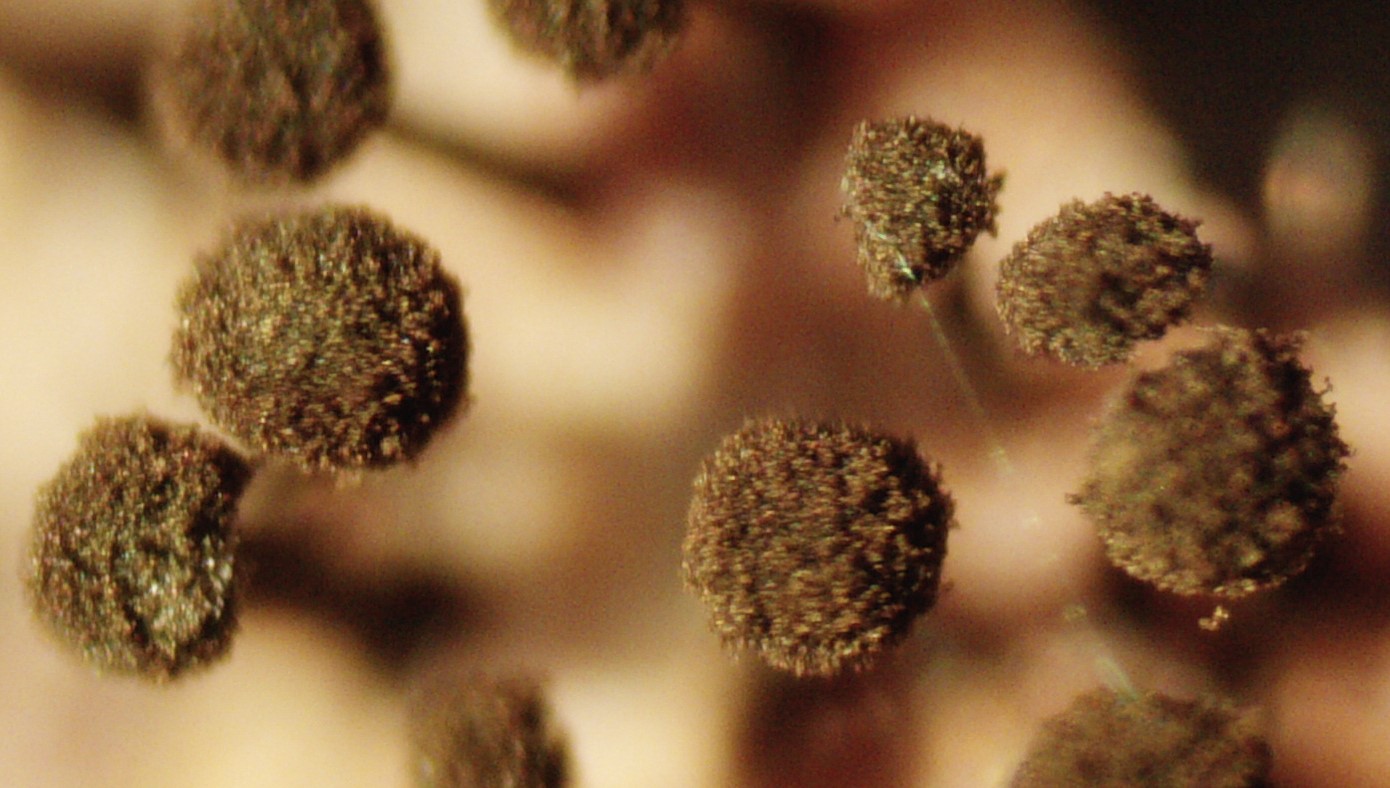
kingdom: Fungi
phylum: Ascomycota
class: Dothideomycetes
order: Pleosporales
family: Melanommataceae
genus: Seifertia
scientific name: Seifertia azaleae
